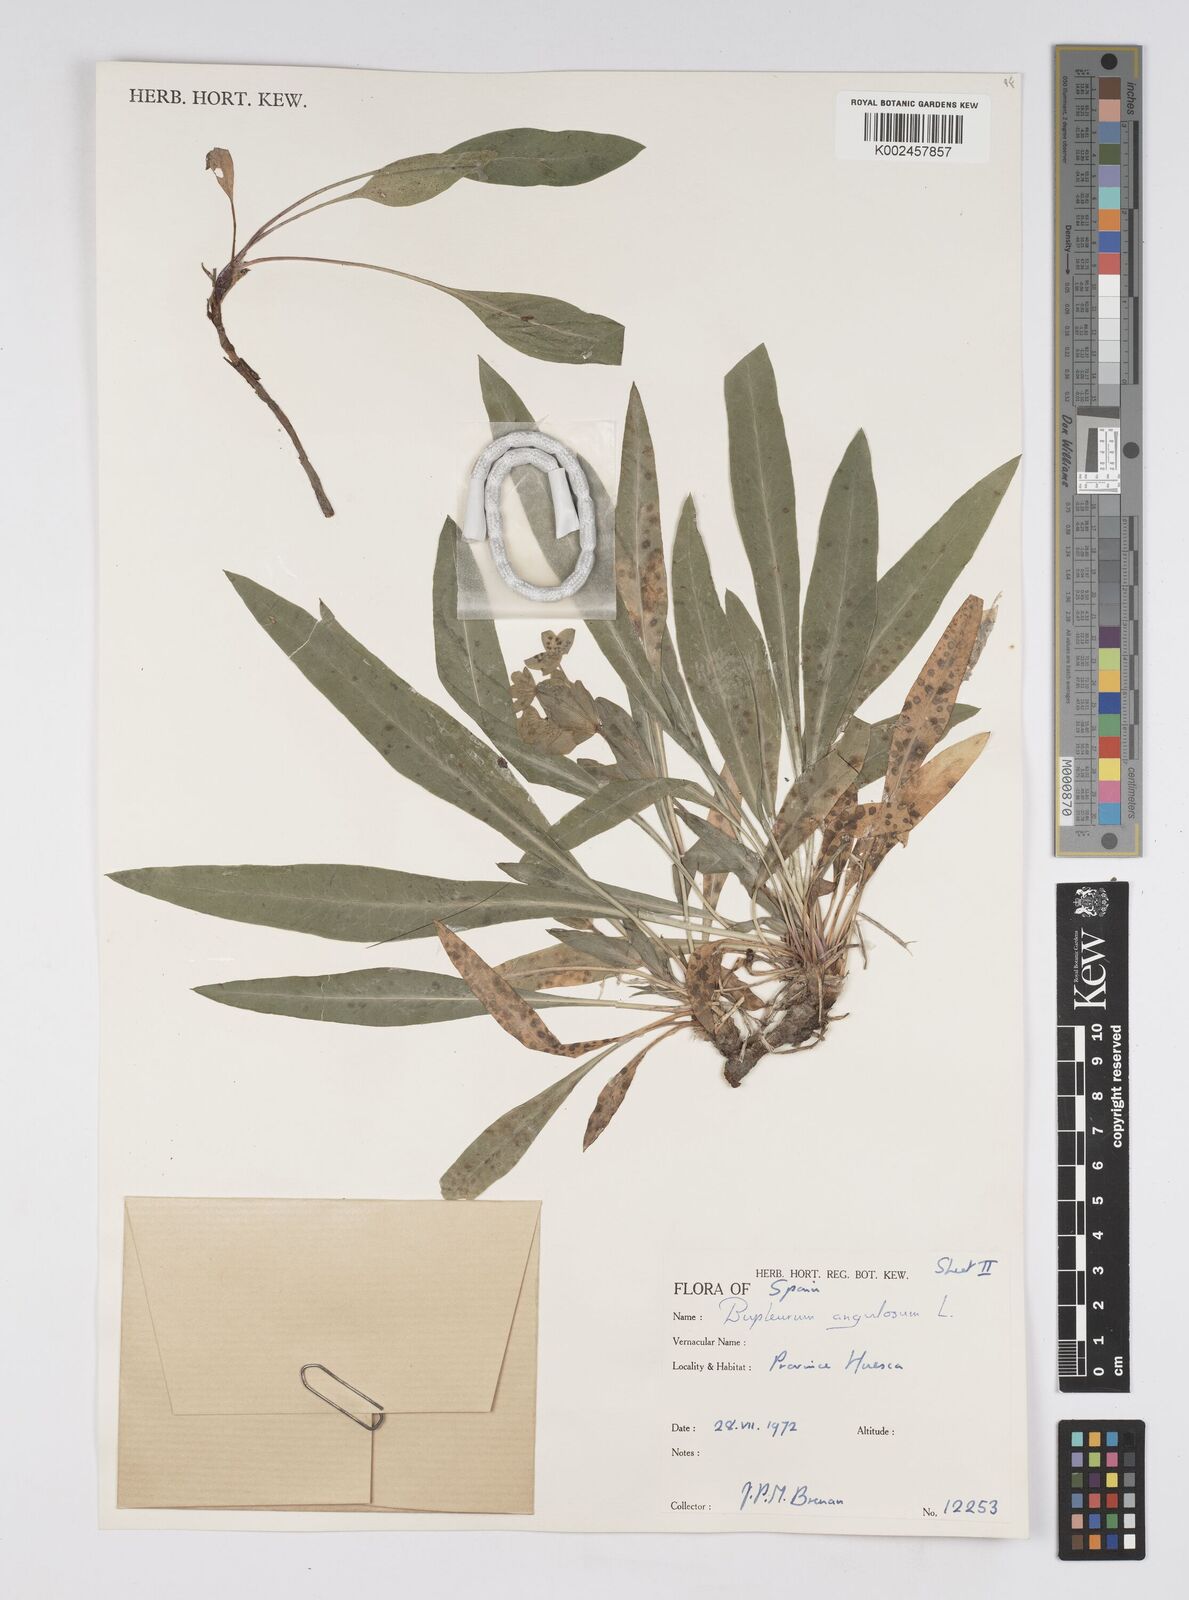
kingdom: Plantae
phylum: Tracheophyta
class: Magnoliopsida
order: Apiales
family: Apiaceae
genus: Bupleurum
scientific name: Bupleurum angulosum
